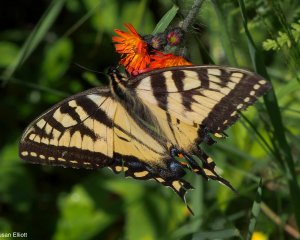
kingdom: Animalia
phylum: Arthropoda
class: Insecta
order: Lepidoptera
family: Papilionidae
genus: Papilio
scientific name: Papilio
